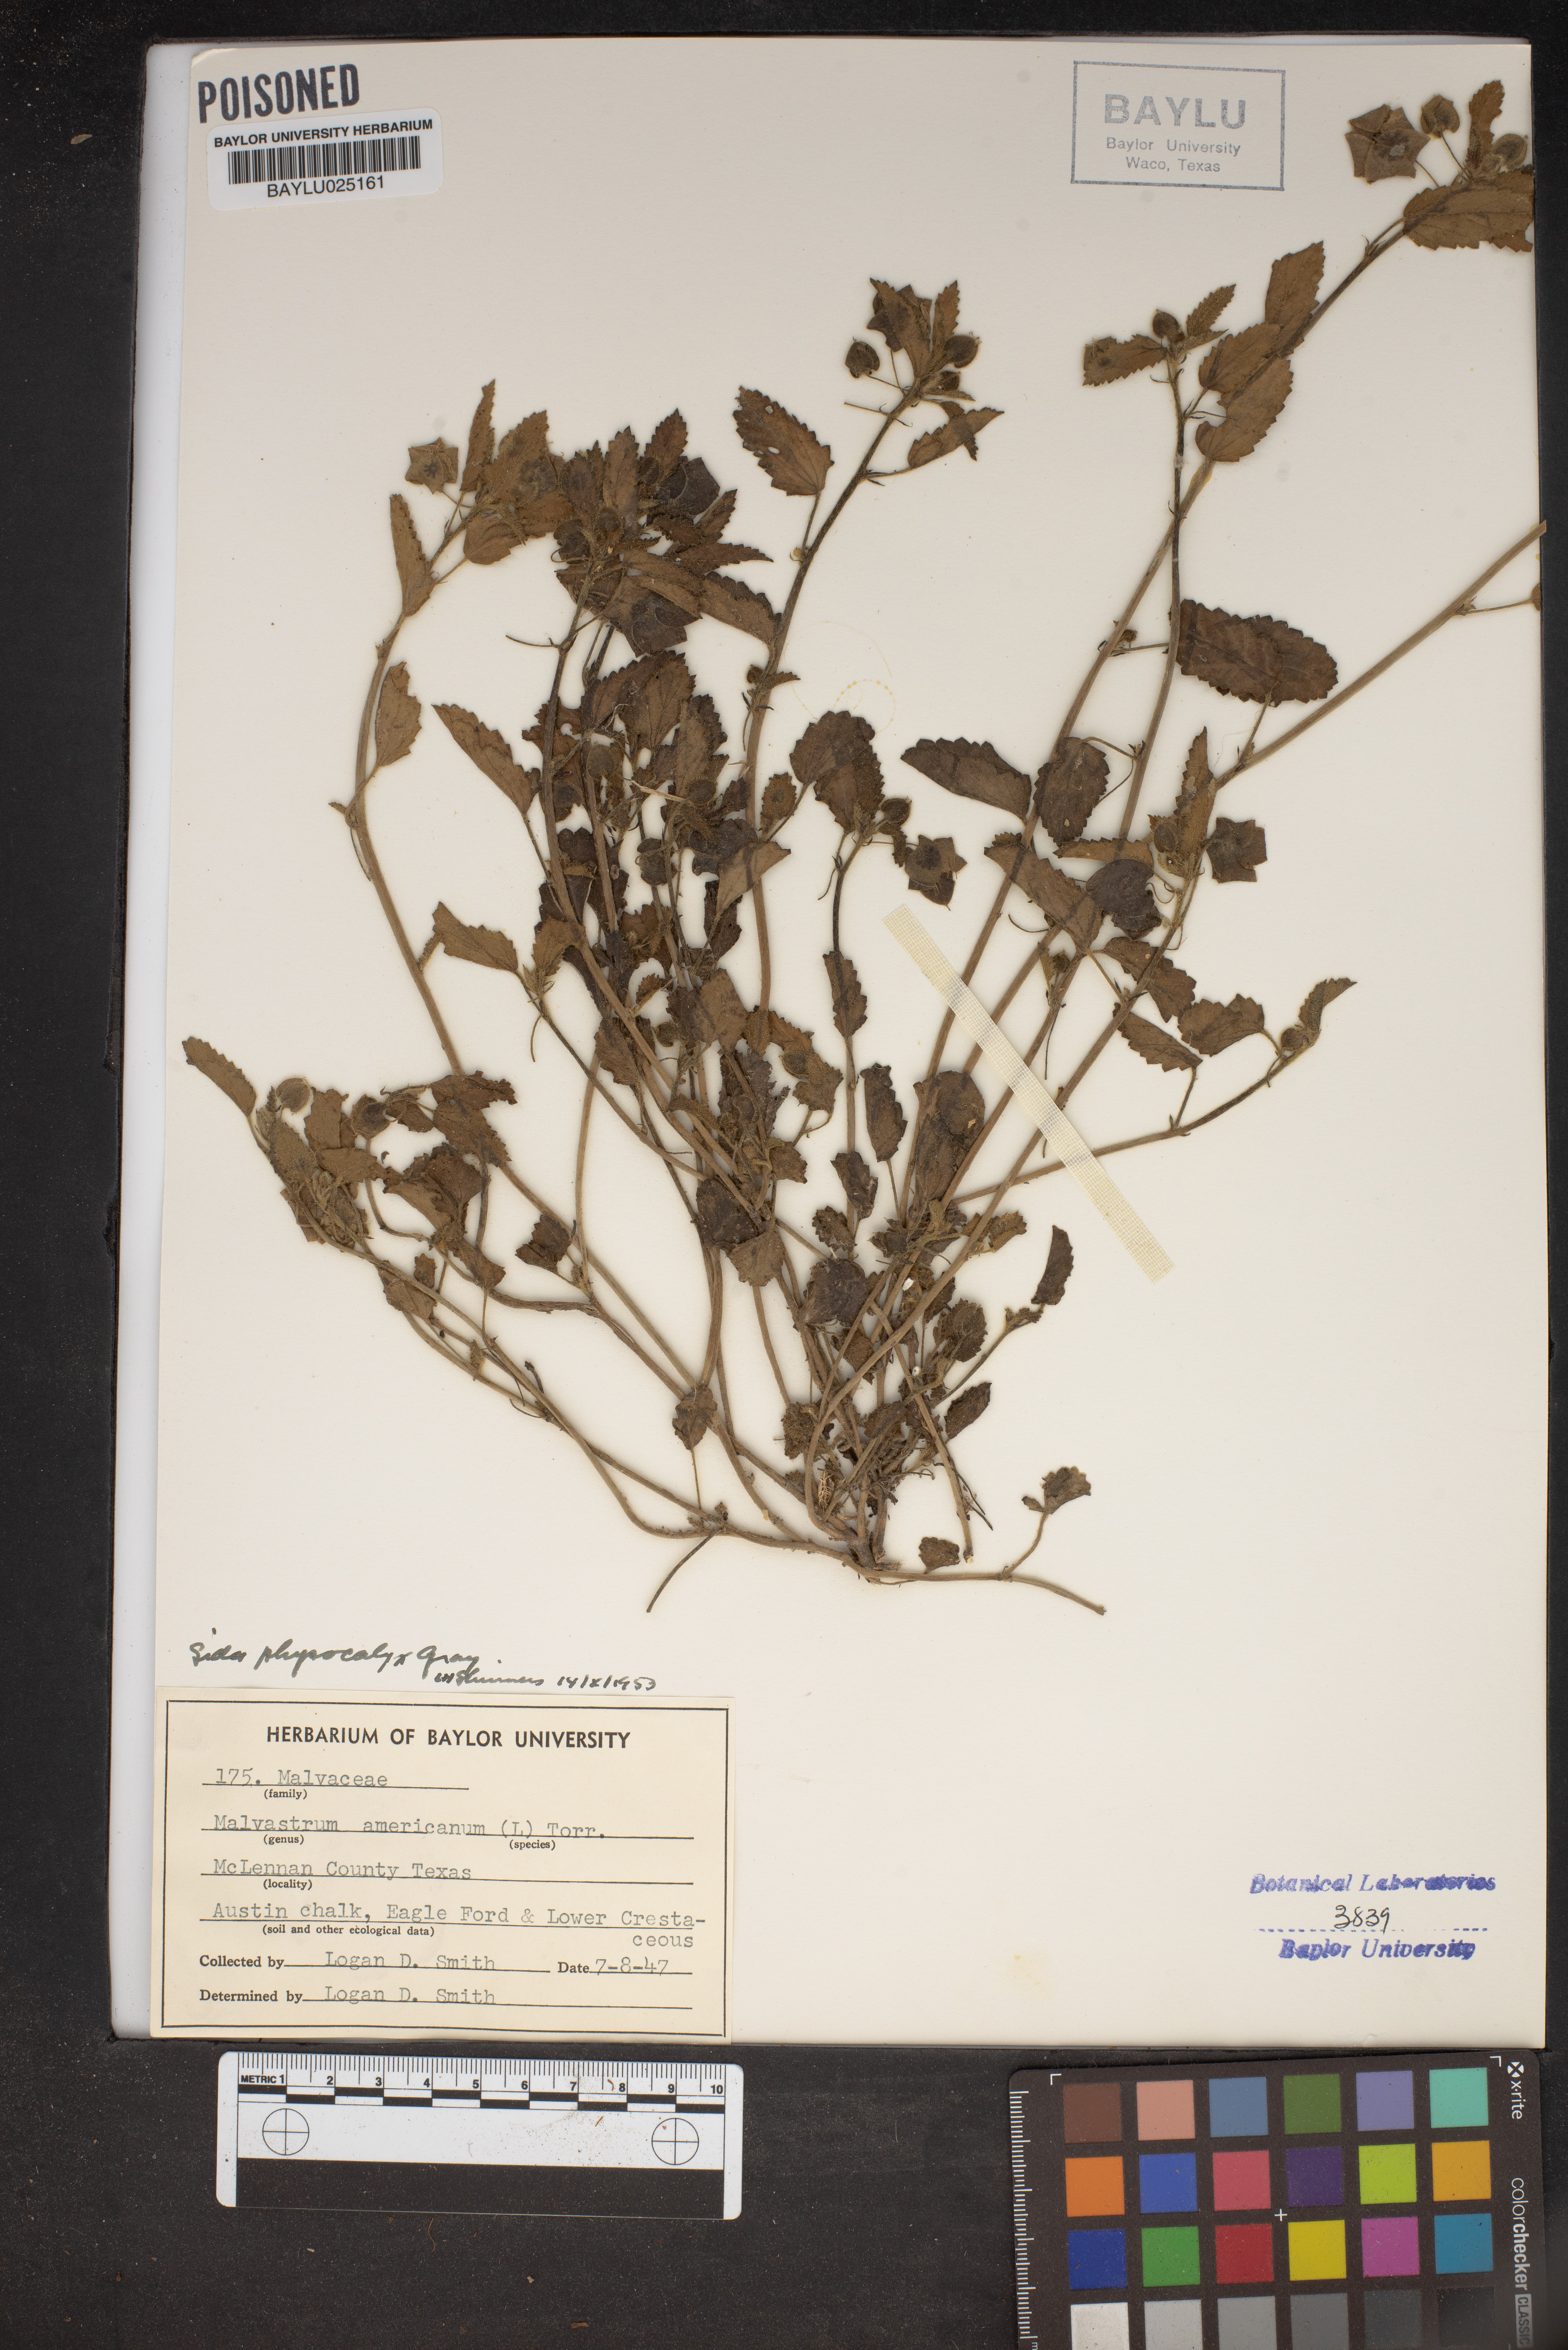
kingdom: Plantae
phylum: Tracheophyta
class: Magnoliopsida
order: Malvales
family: Malvaceae
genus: Malvastrum
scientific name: Malvastrum americanum
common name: Spiked malvastrum
